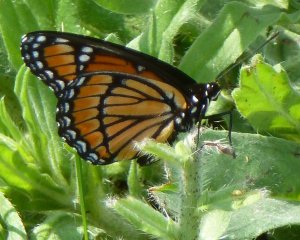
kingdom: Animalia
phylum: Arthropoda
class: Insecta
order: Lepidoptera
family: Nymphalidae
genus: Limenitis
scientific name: Limenitis archippus
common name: Viceroy
